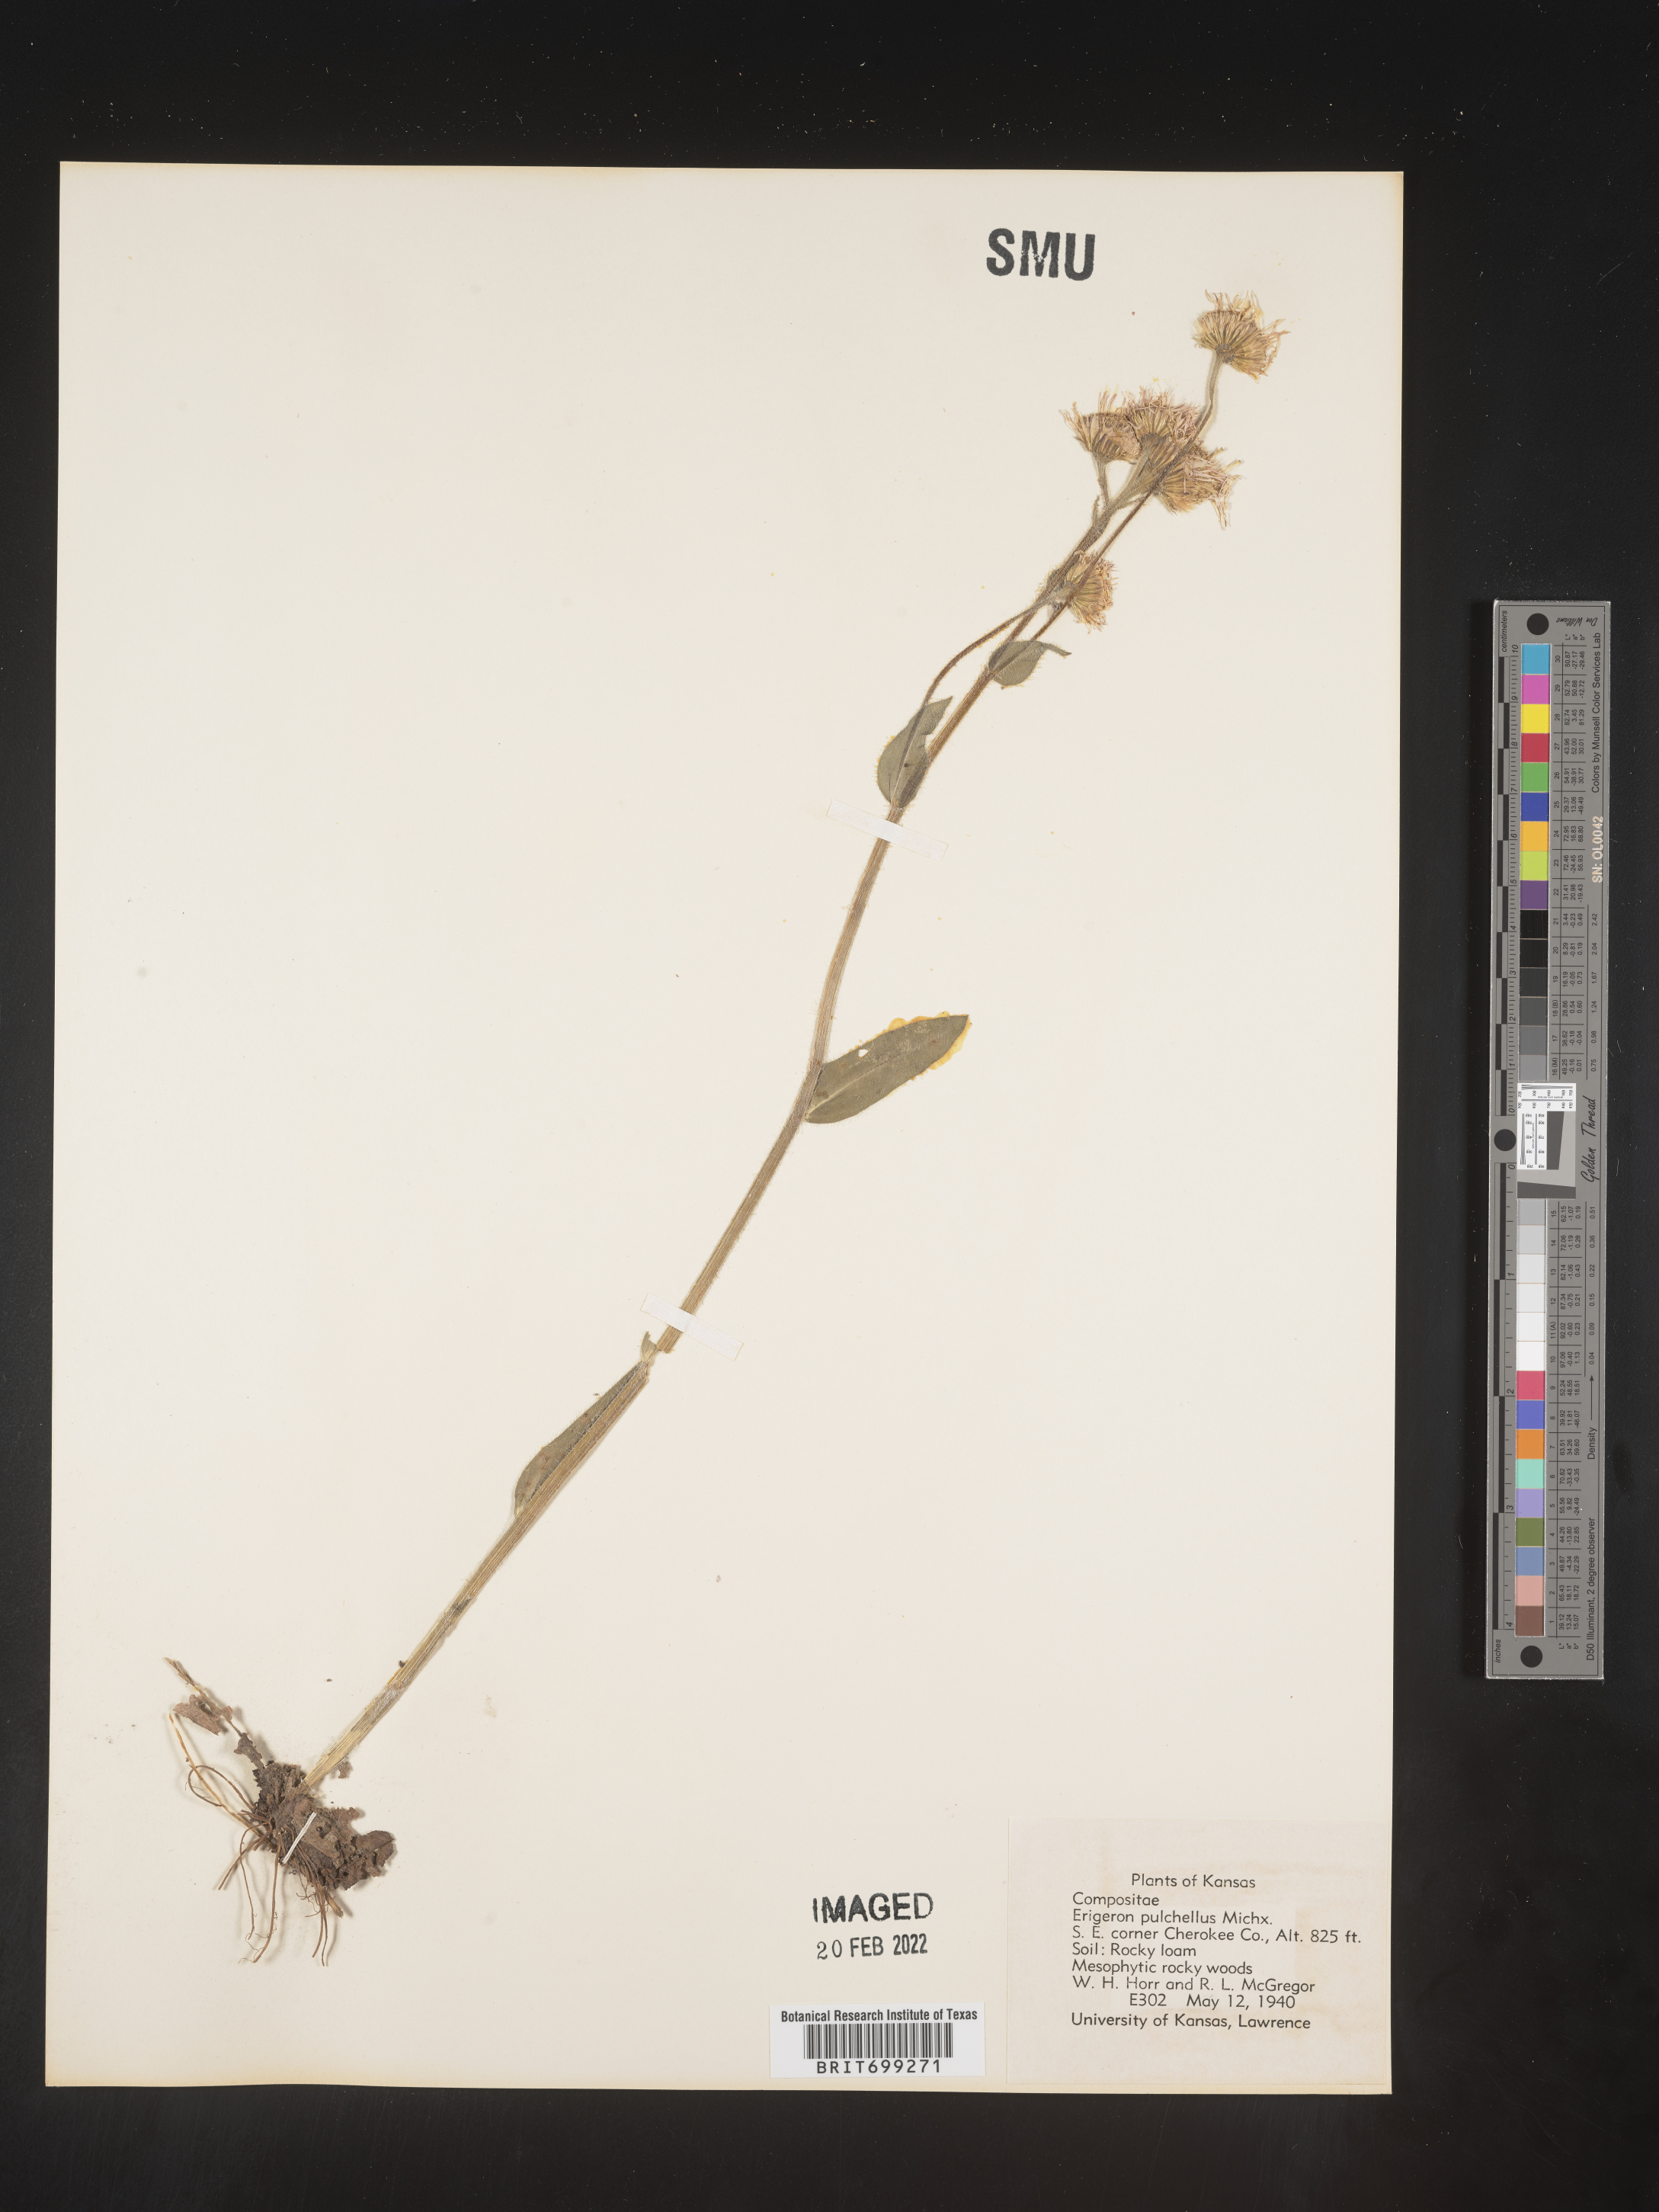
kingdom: Plantae
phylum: Tracheophyta
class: Magnoliopsida
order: Asterales
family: Asteraceae
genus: Erigeron
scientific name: Erigeron pulchellus
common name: Hairy fleabane
